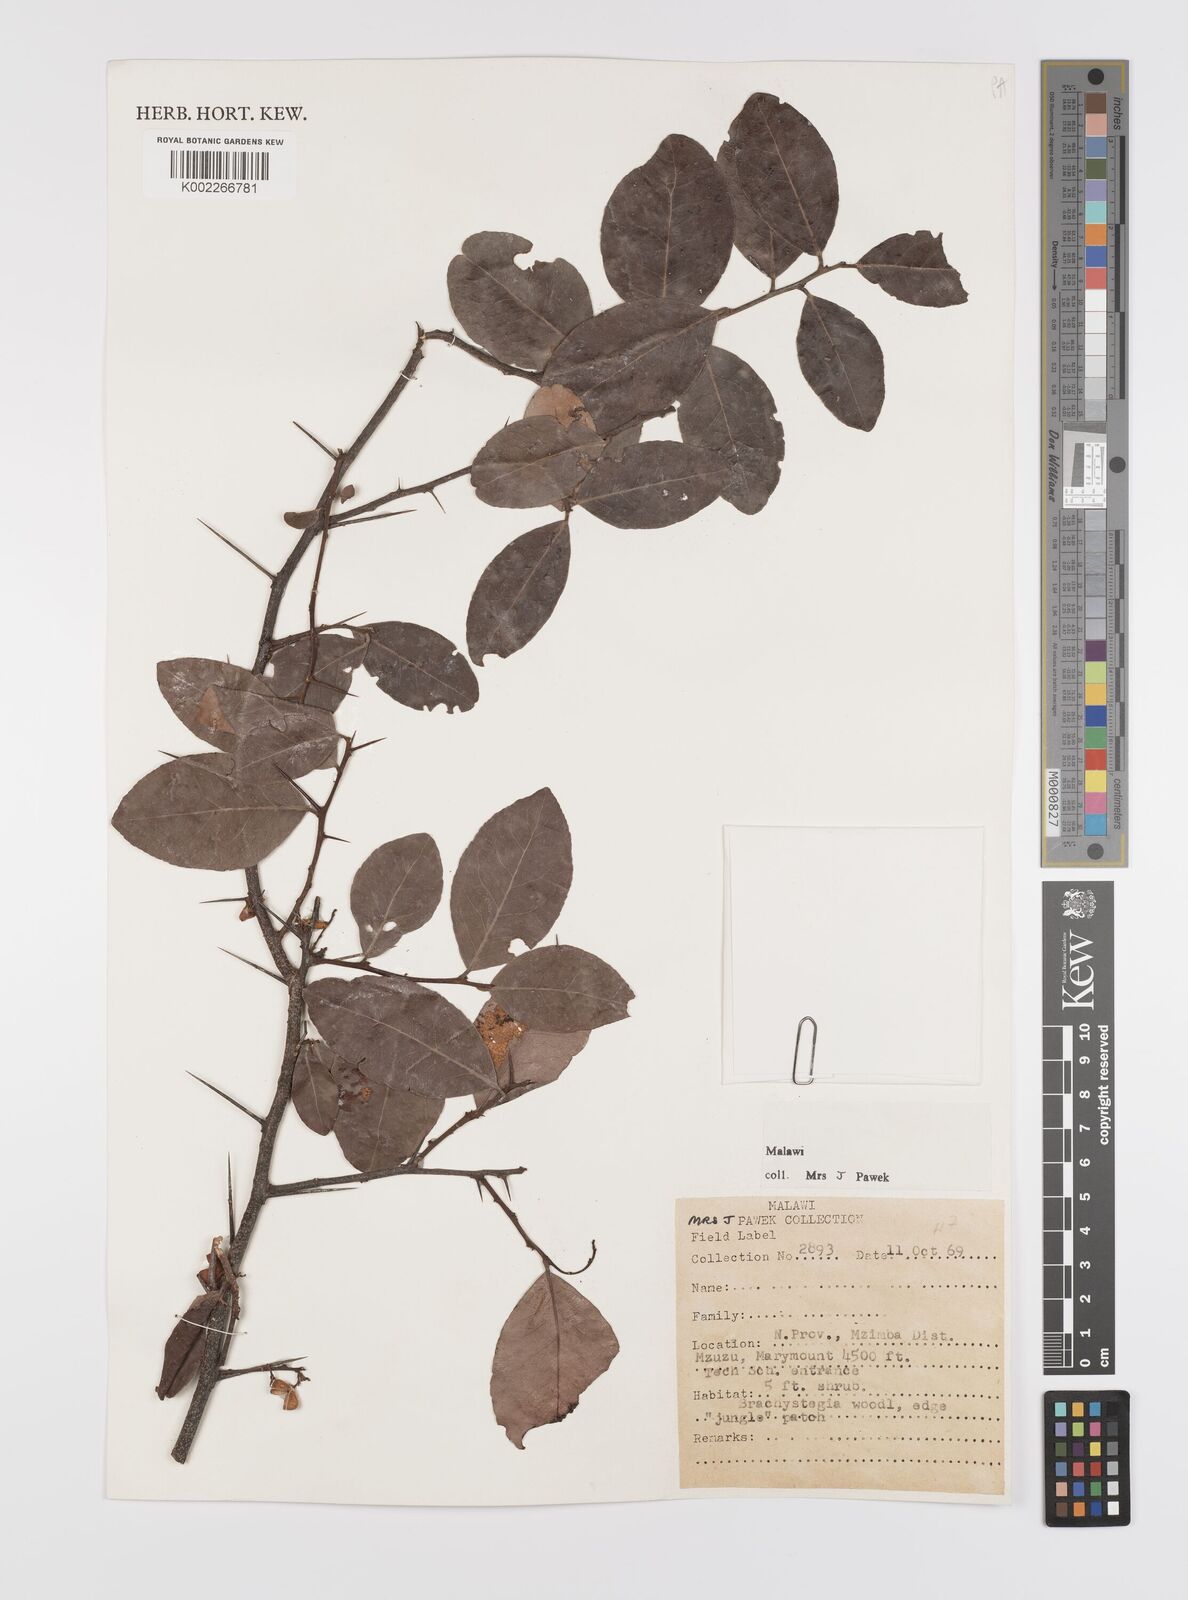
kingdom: Plantae
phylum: Tracheophyta
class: Magnoliopsida
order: Celastrales
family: Celastraceae
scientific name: Celastraceae
